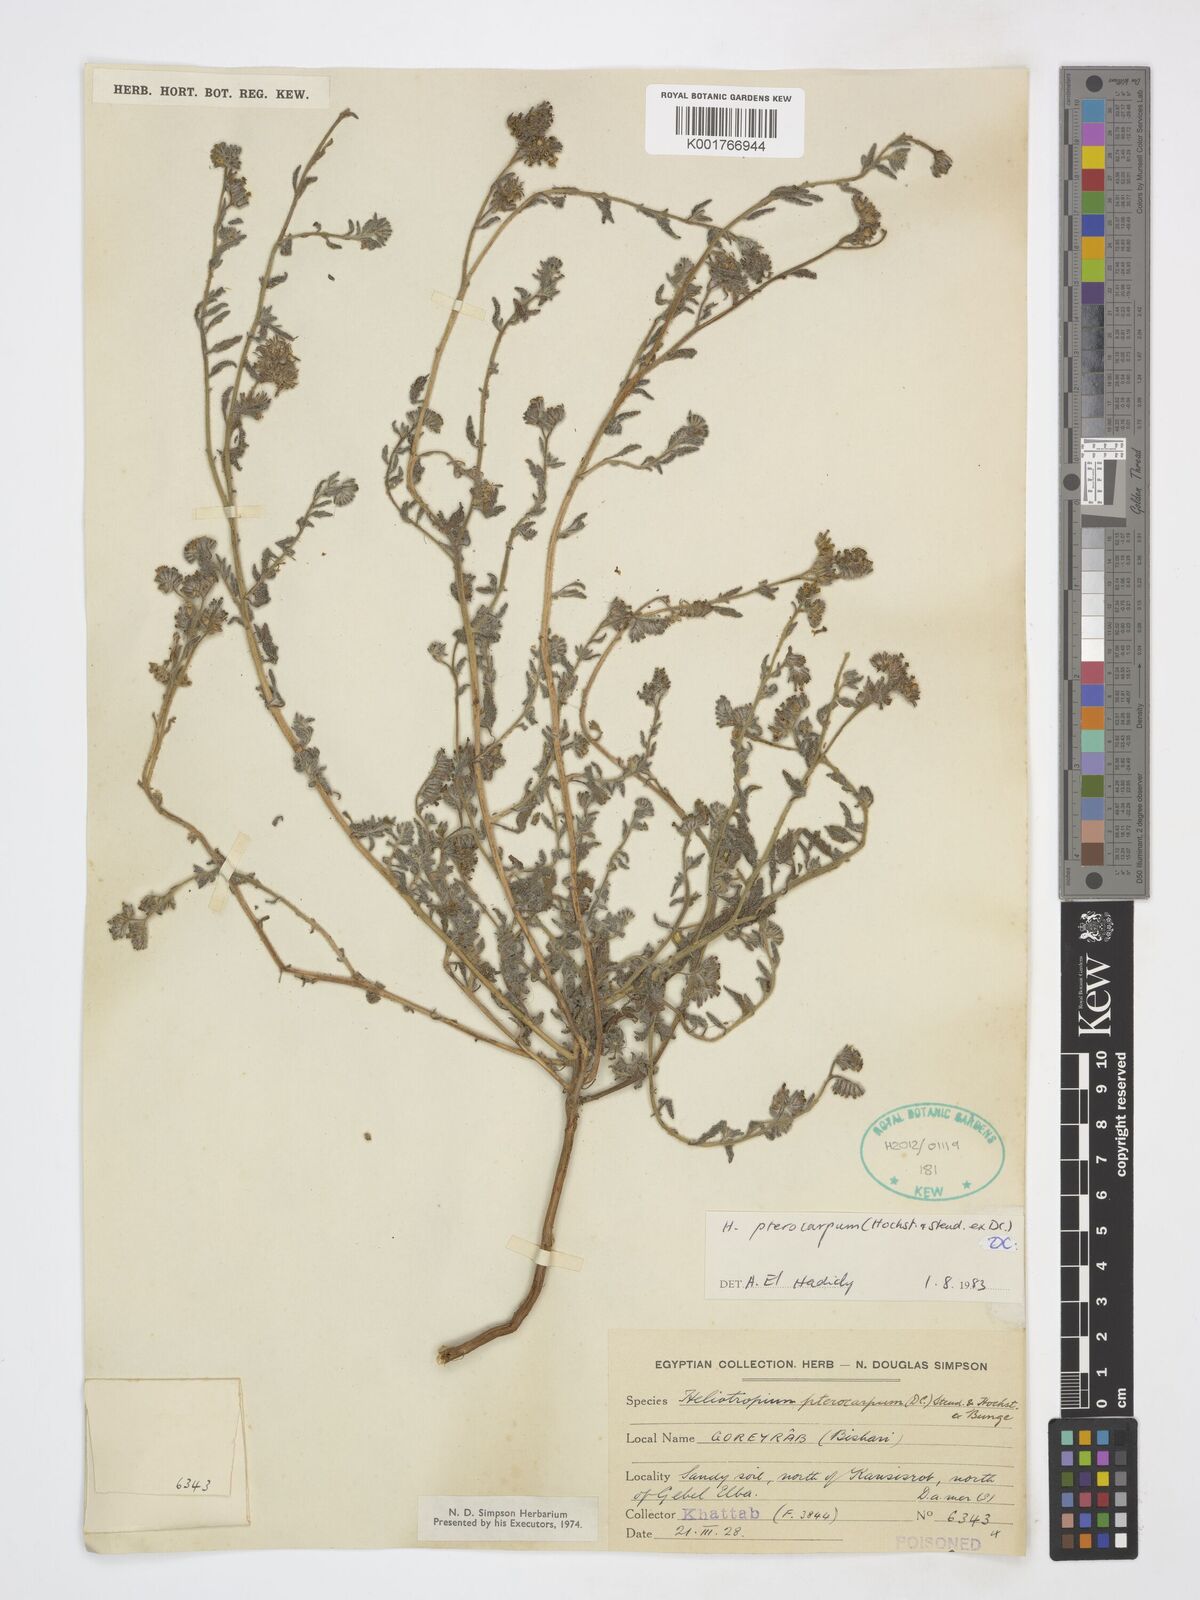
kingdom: Plantae
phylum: Tracheophyta
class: Magnoliopsida
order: Boraginales
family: Heliotropiaceae
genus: Heliotropium
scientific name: Heliotropium pterocarpum
